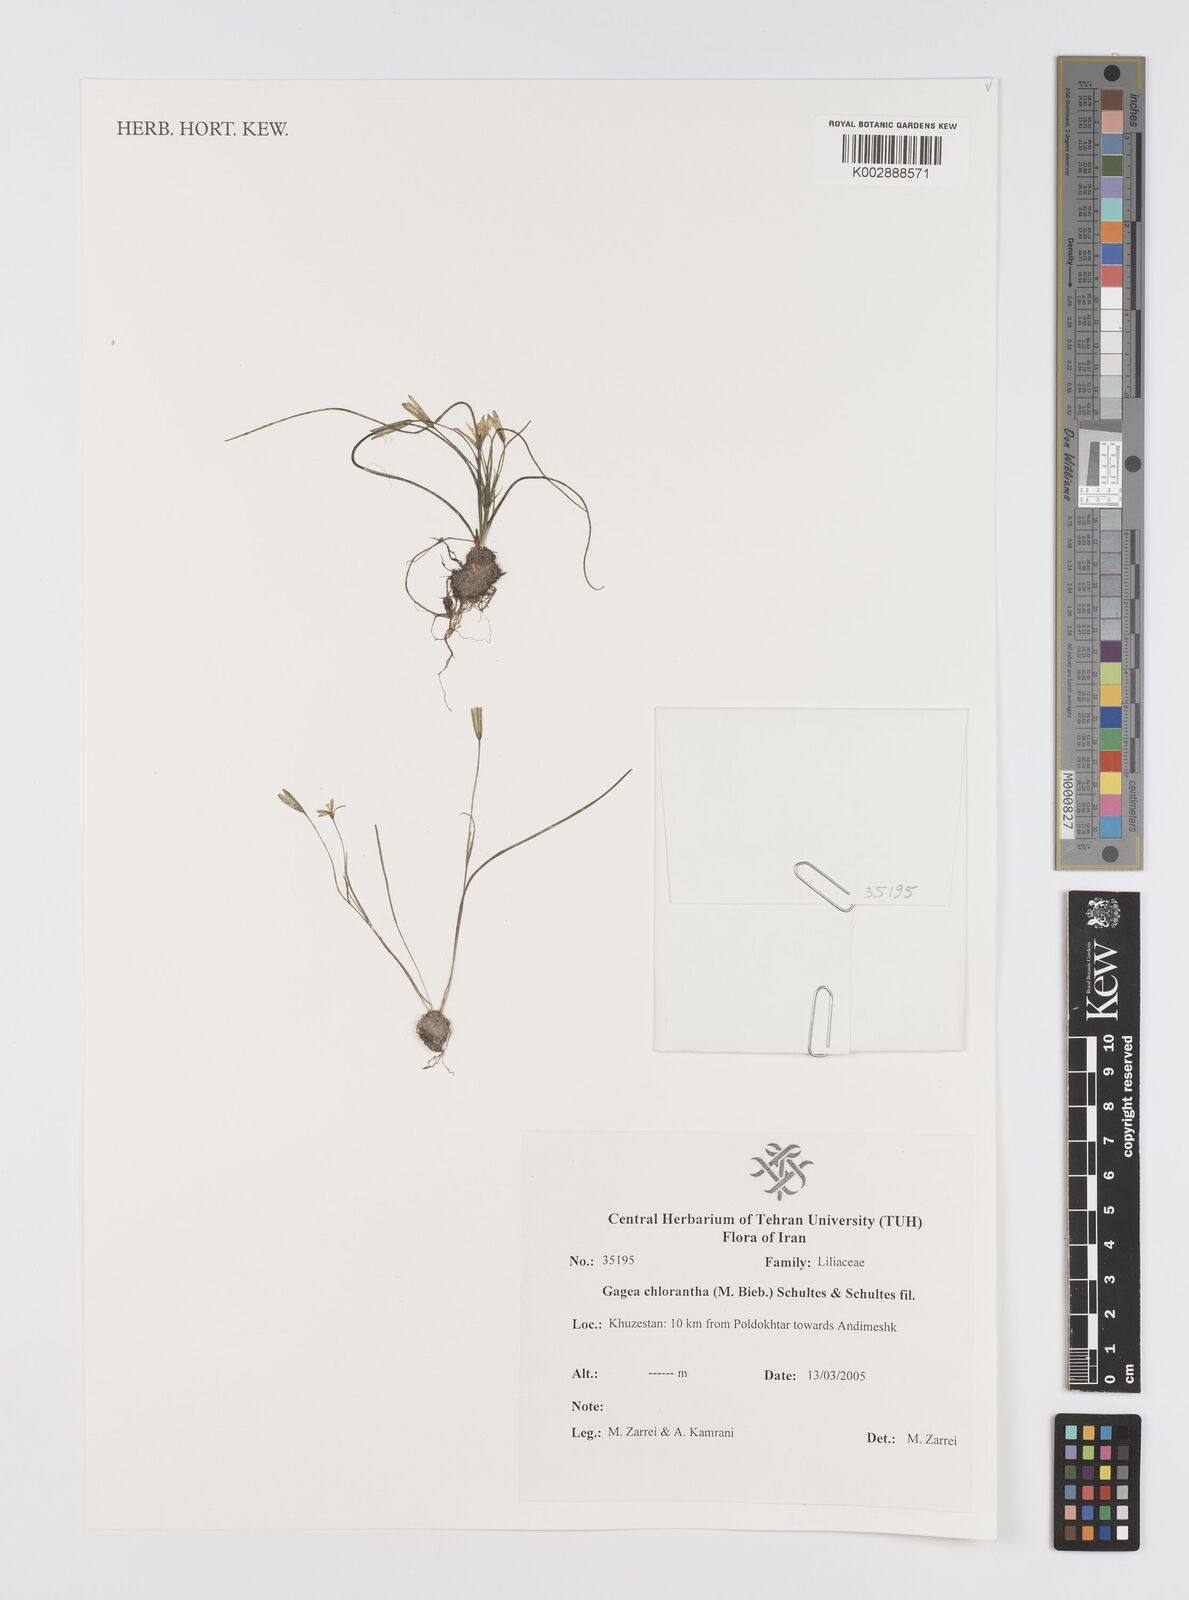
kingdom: Plantae
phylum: Tracheophyta
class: Liliopsida
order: Liliales
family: Liliaceae
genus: Gagea
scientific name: Gagea chlorantha
